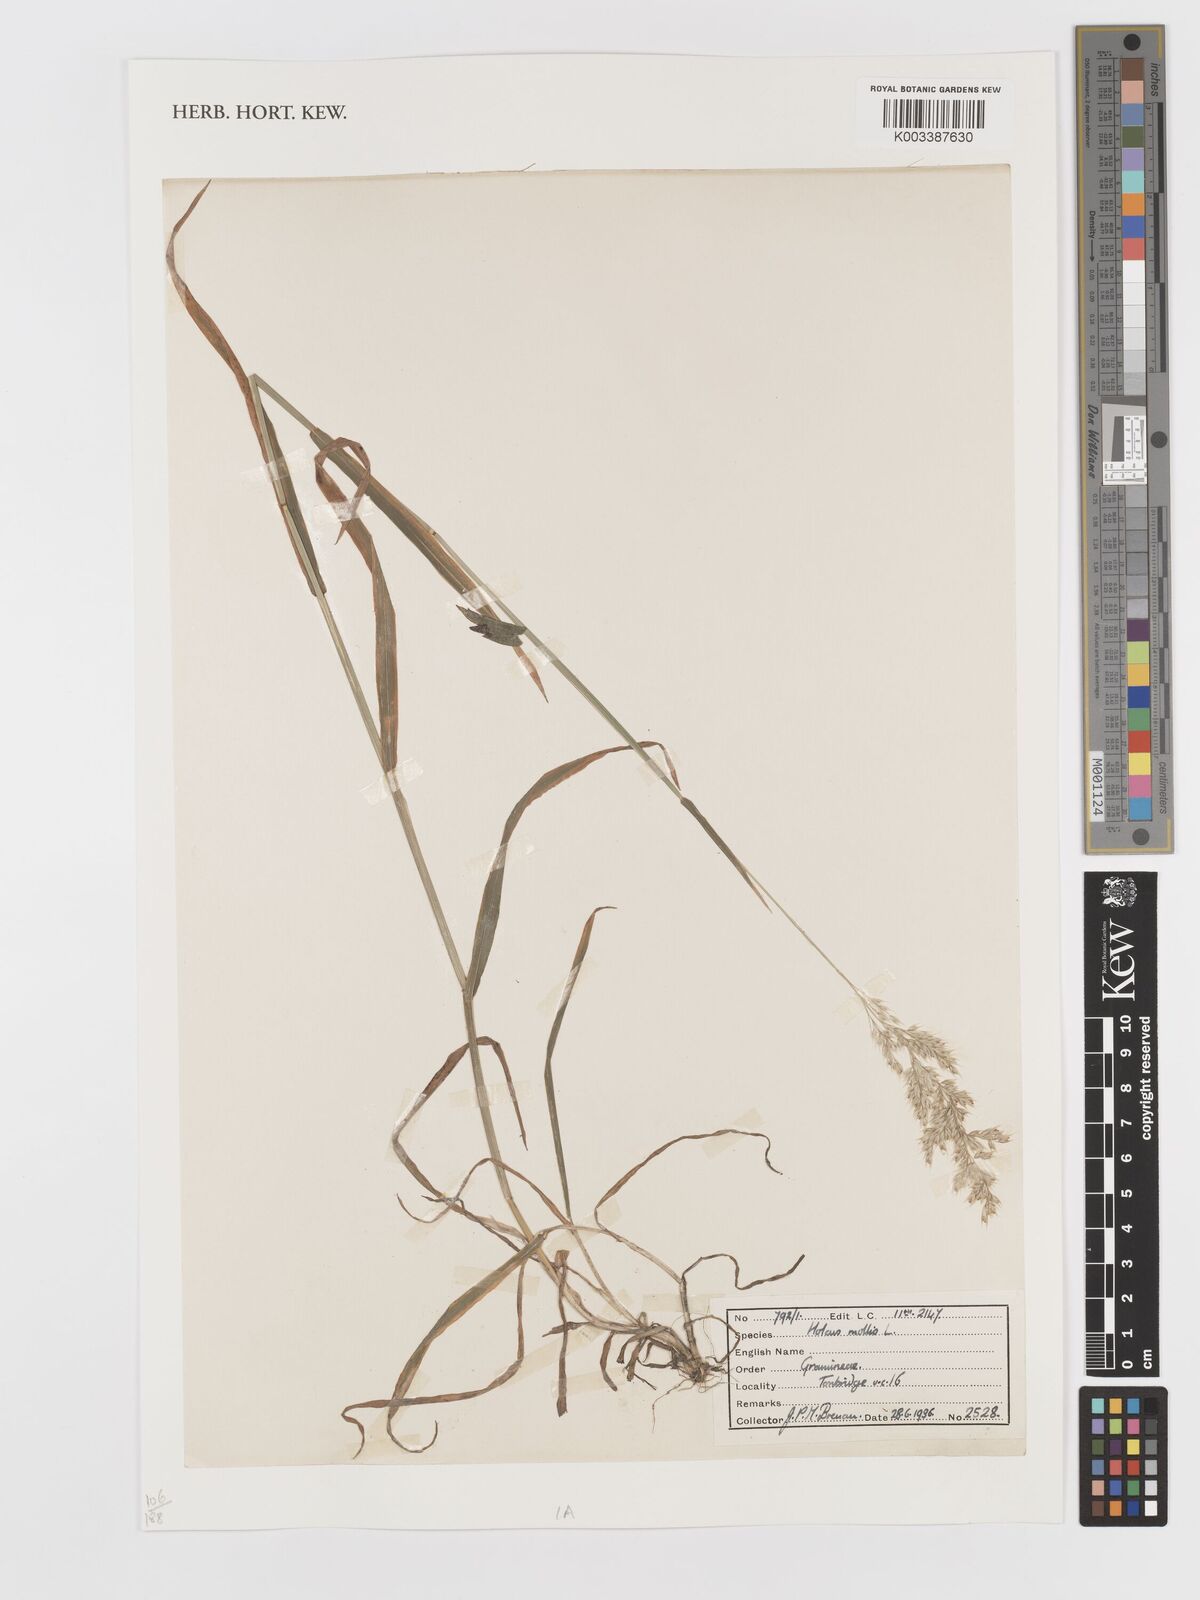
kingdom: Plantae
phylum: Tracheophyta
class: Liliopsida
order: Poales
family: Poaceae
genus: Holcus
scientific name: Holcus lanatus
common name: Yorkshire-fog
